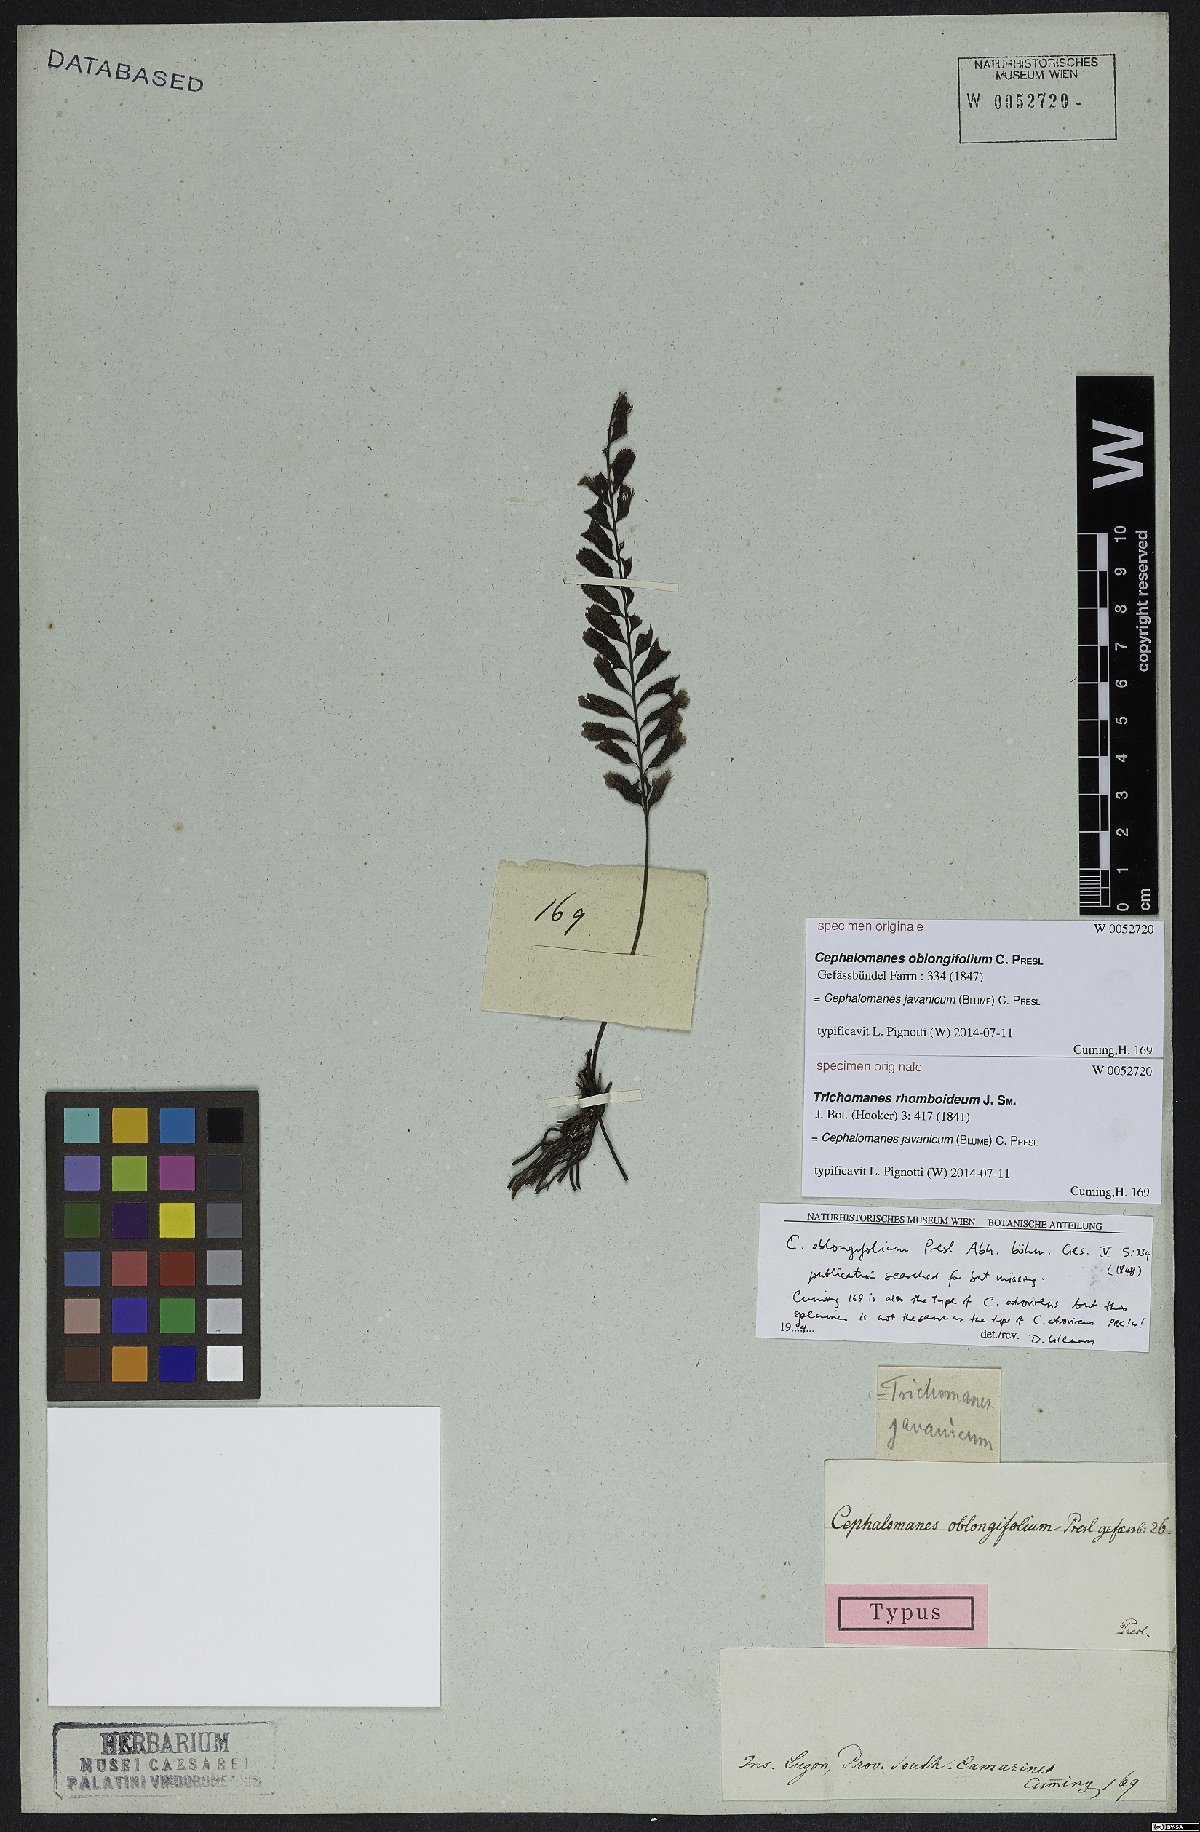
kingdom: Plantae
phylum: Tracheophyta
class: Polypodiopsida
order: Hymenophyllales
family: Hymenophyllaceae
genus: Cephalomanes
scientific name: Cephalomanes javanicum
